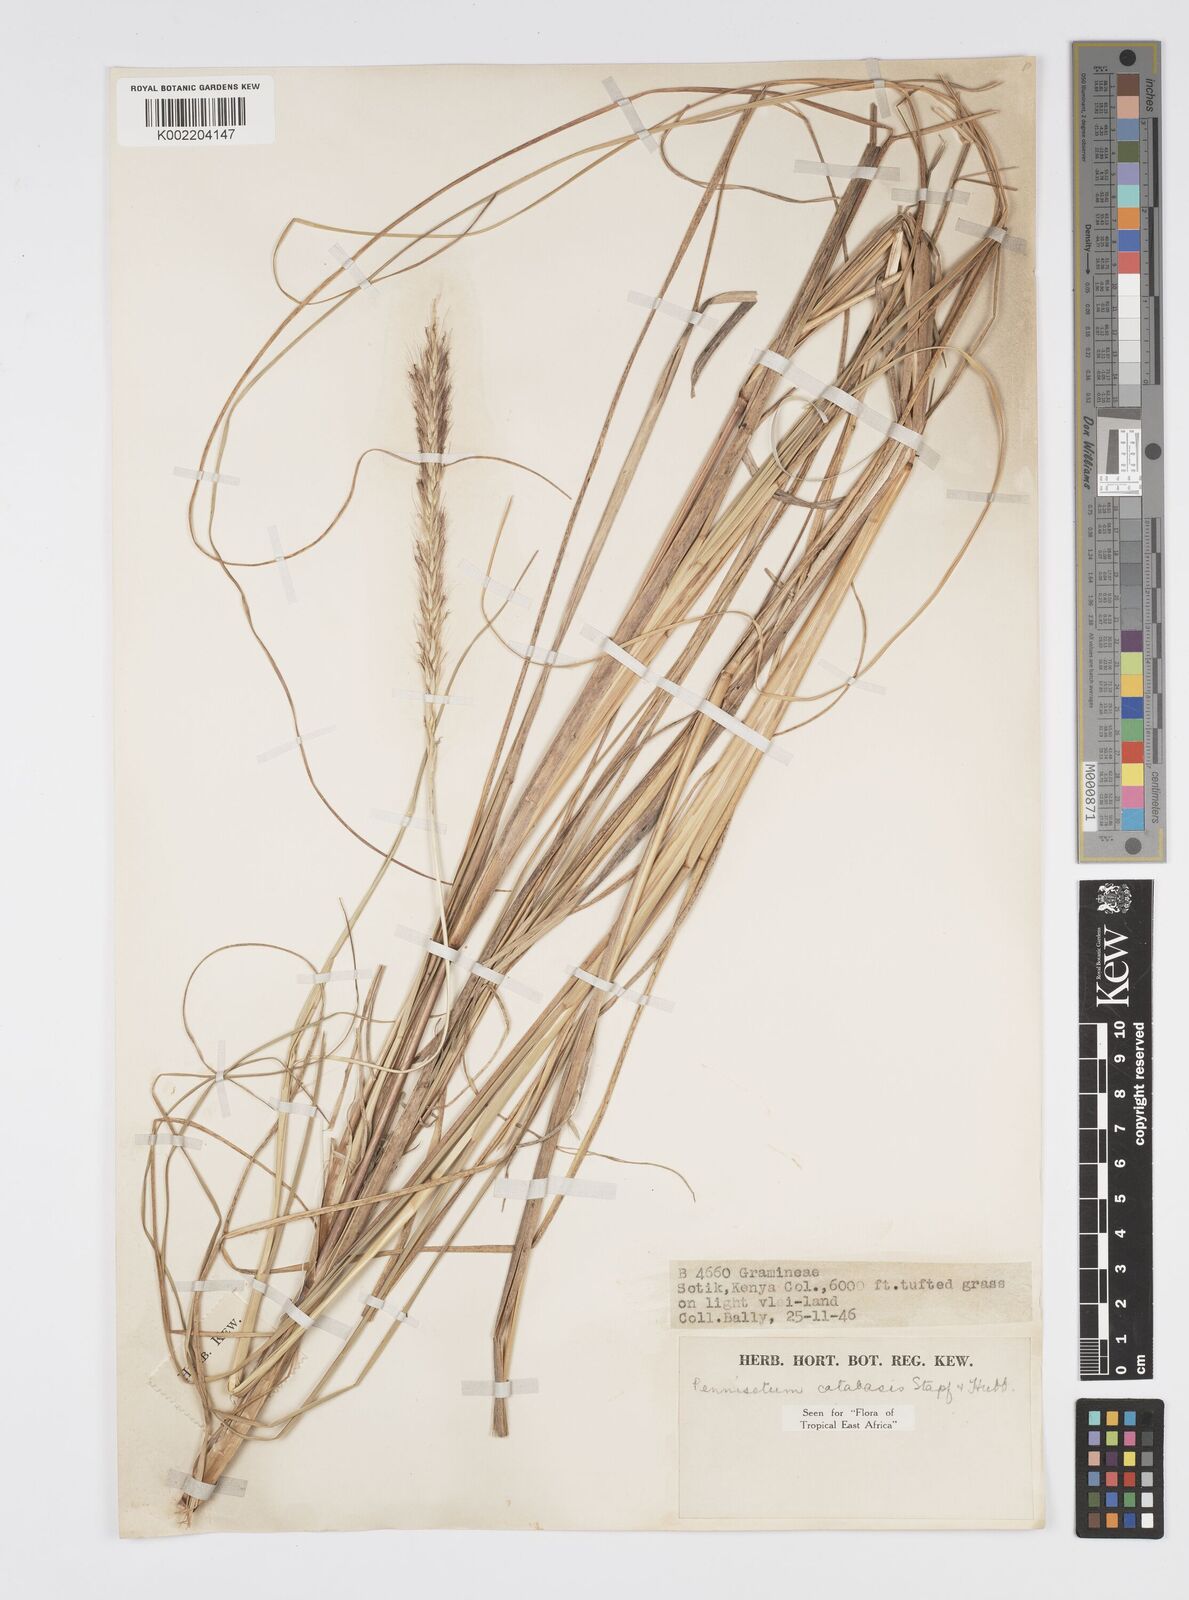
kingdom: Plantae
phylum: Tracheophyta
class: Liliopsida
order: Poales
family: Poaceae
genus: Cenchrus
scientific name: Cenchrus Pennisetum spec
